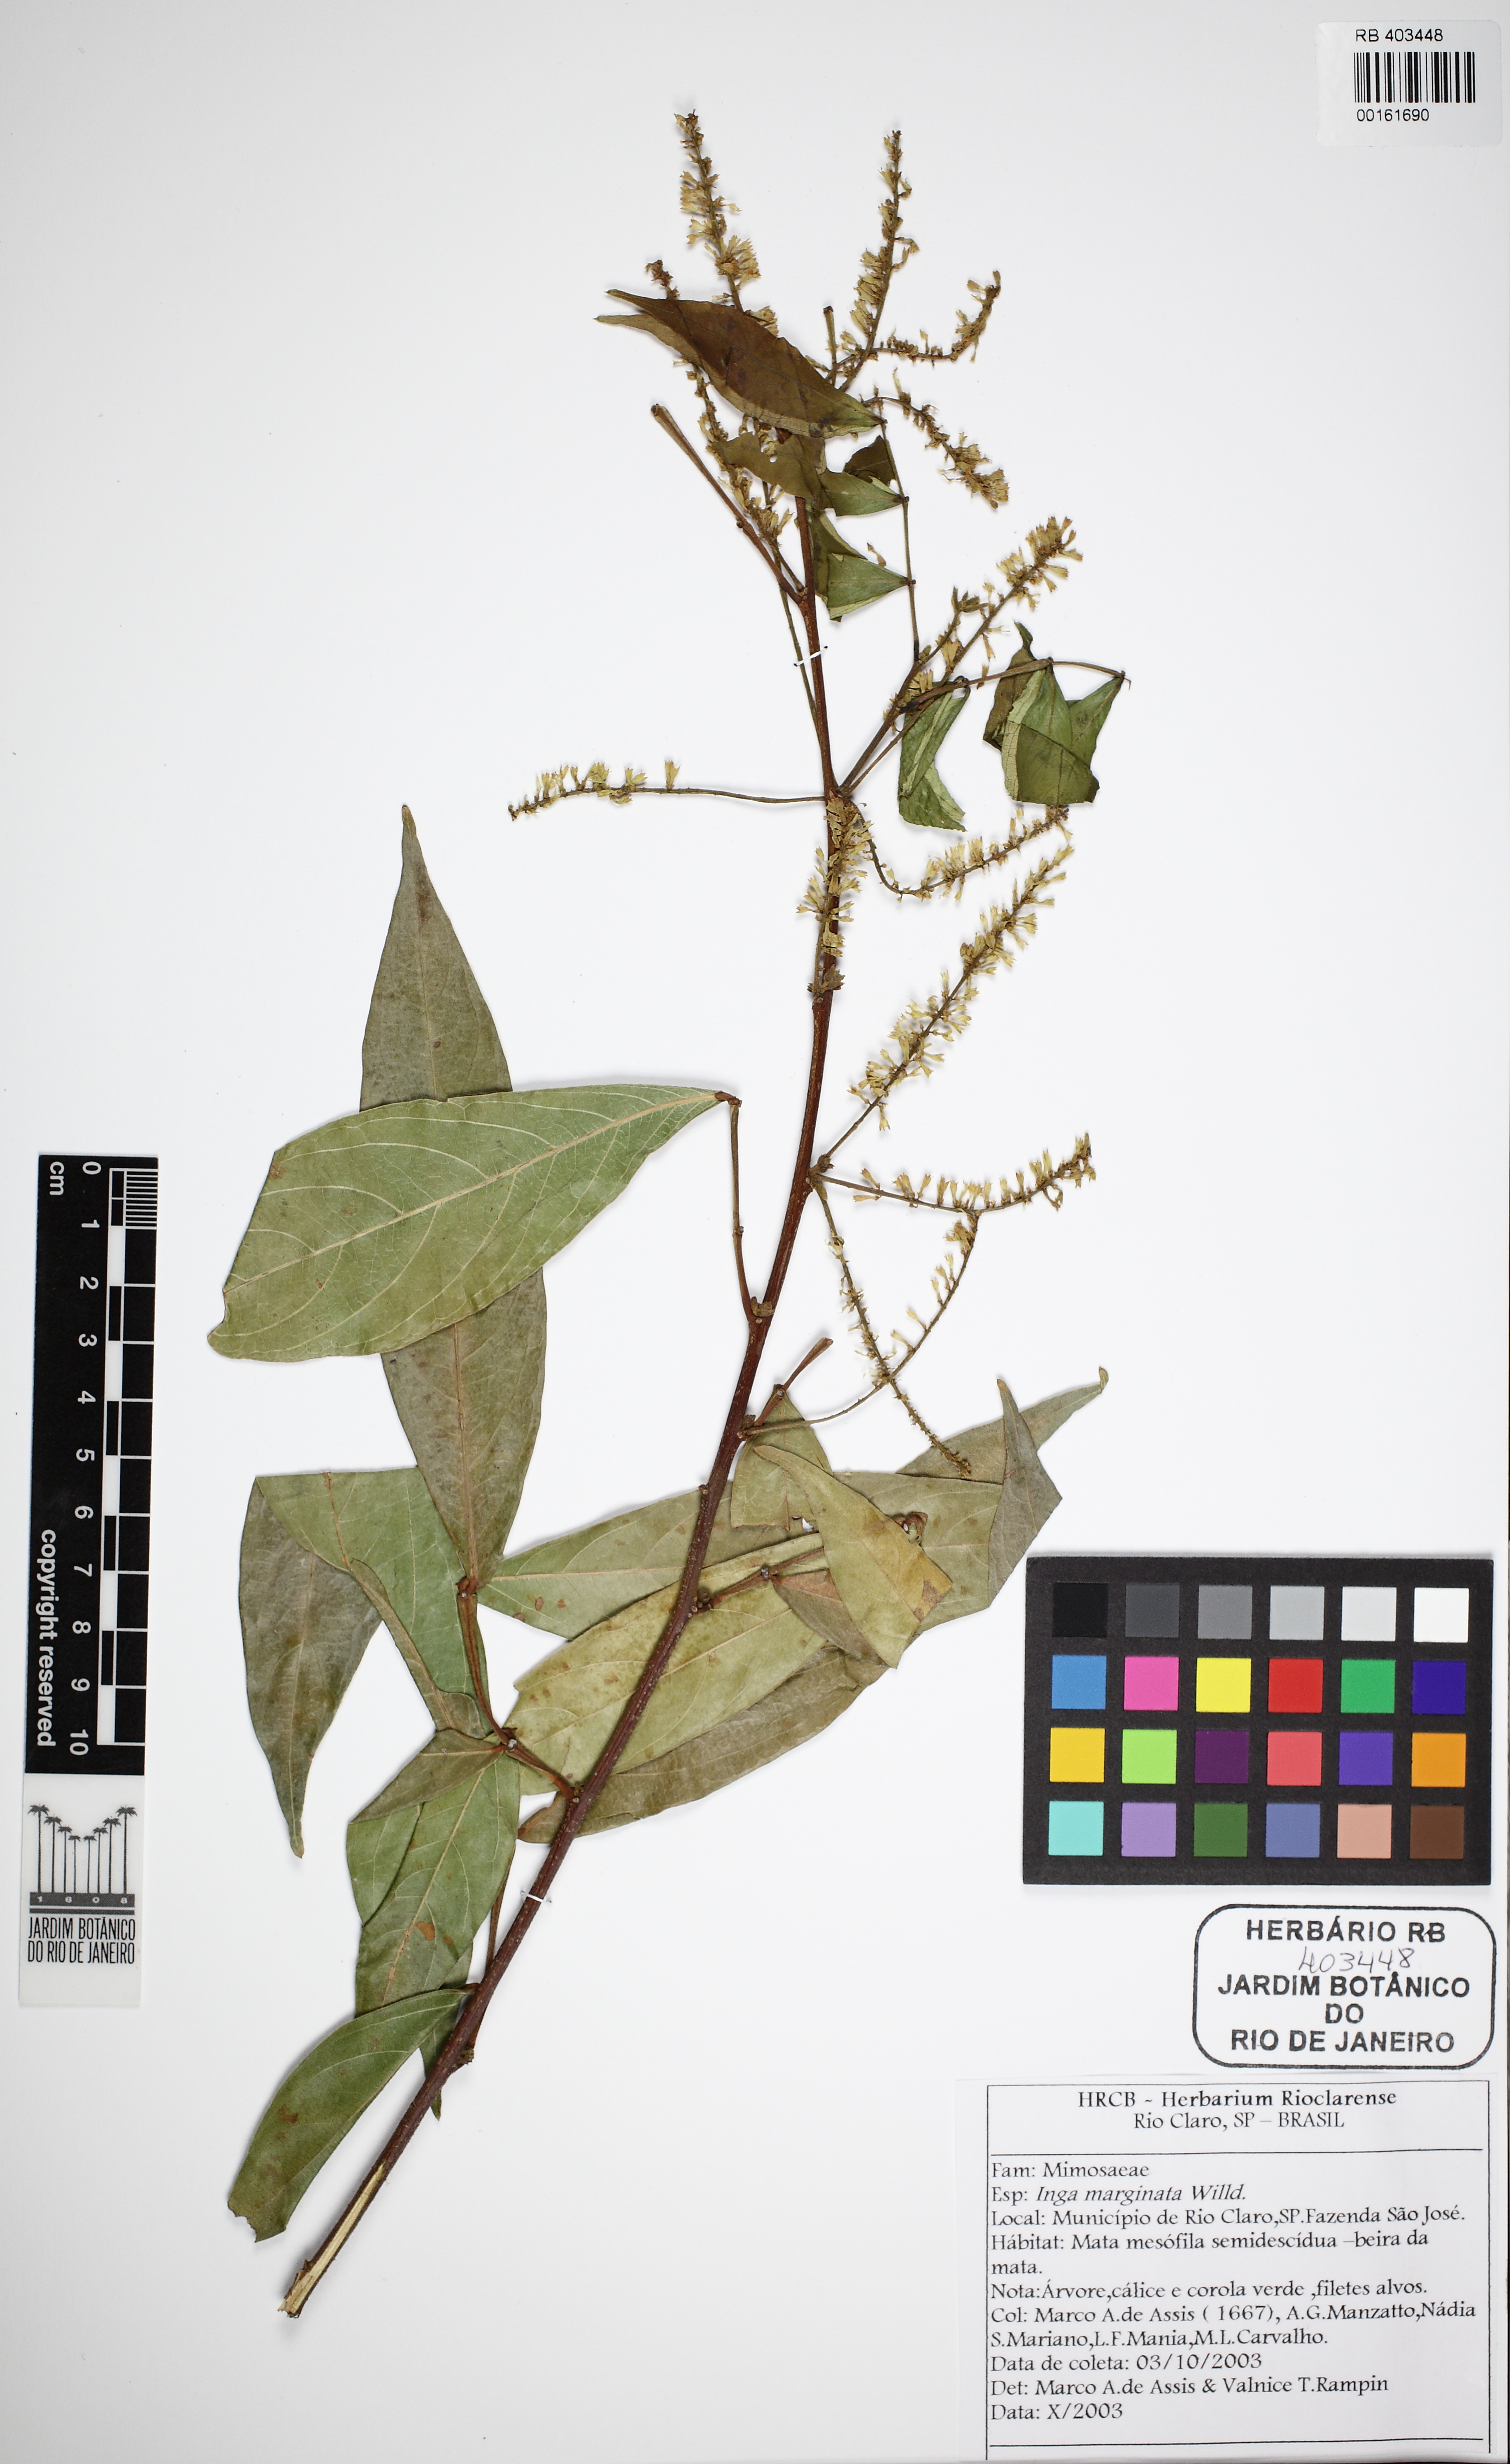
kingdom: Plantae
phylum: Tracheophyta
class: Magnoliopsida
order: Fabales
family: Fabaceae
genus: Inga
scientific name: Inga marginata
